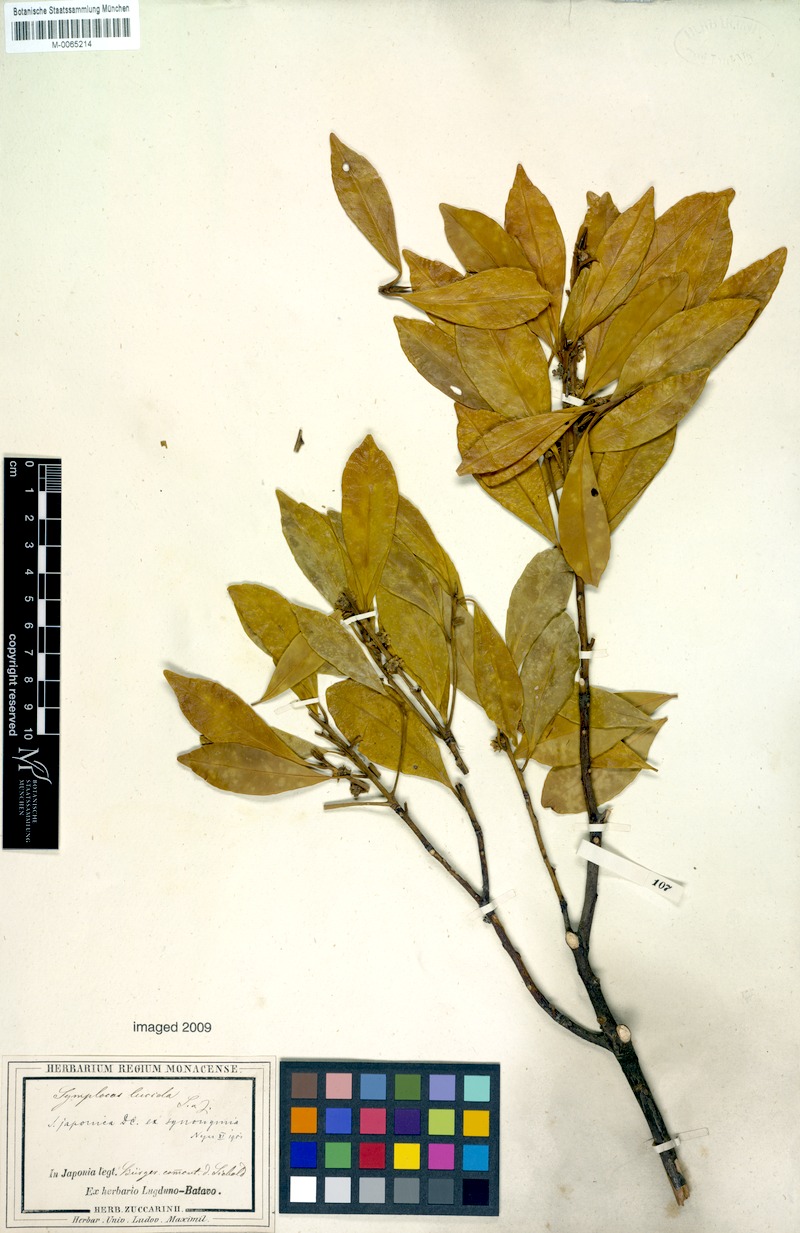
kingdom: Plantae
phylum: Tracheophyta
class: Magnoliopsida
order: Rosales
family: Rosaceae
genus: Pourthiaea
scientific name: Pourthiaea villosa
